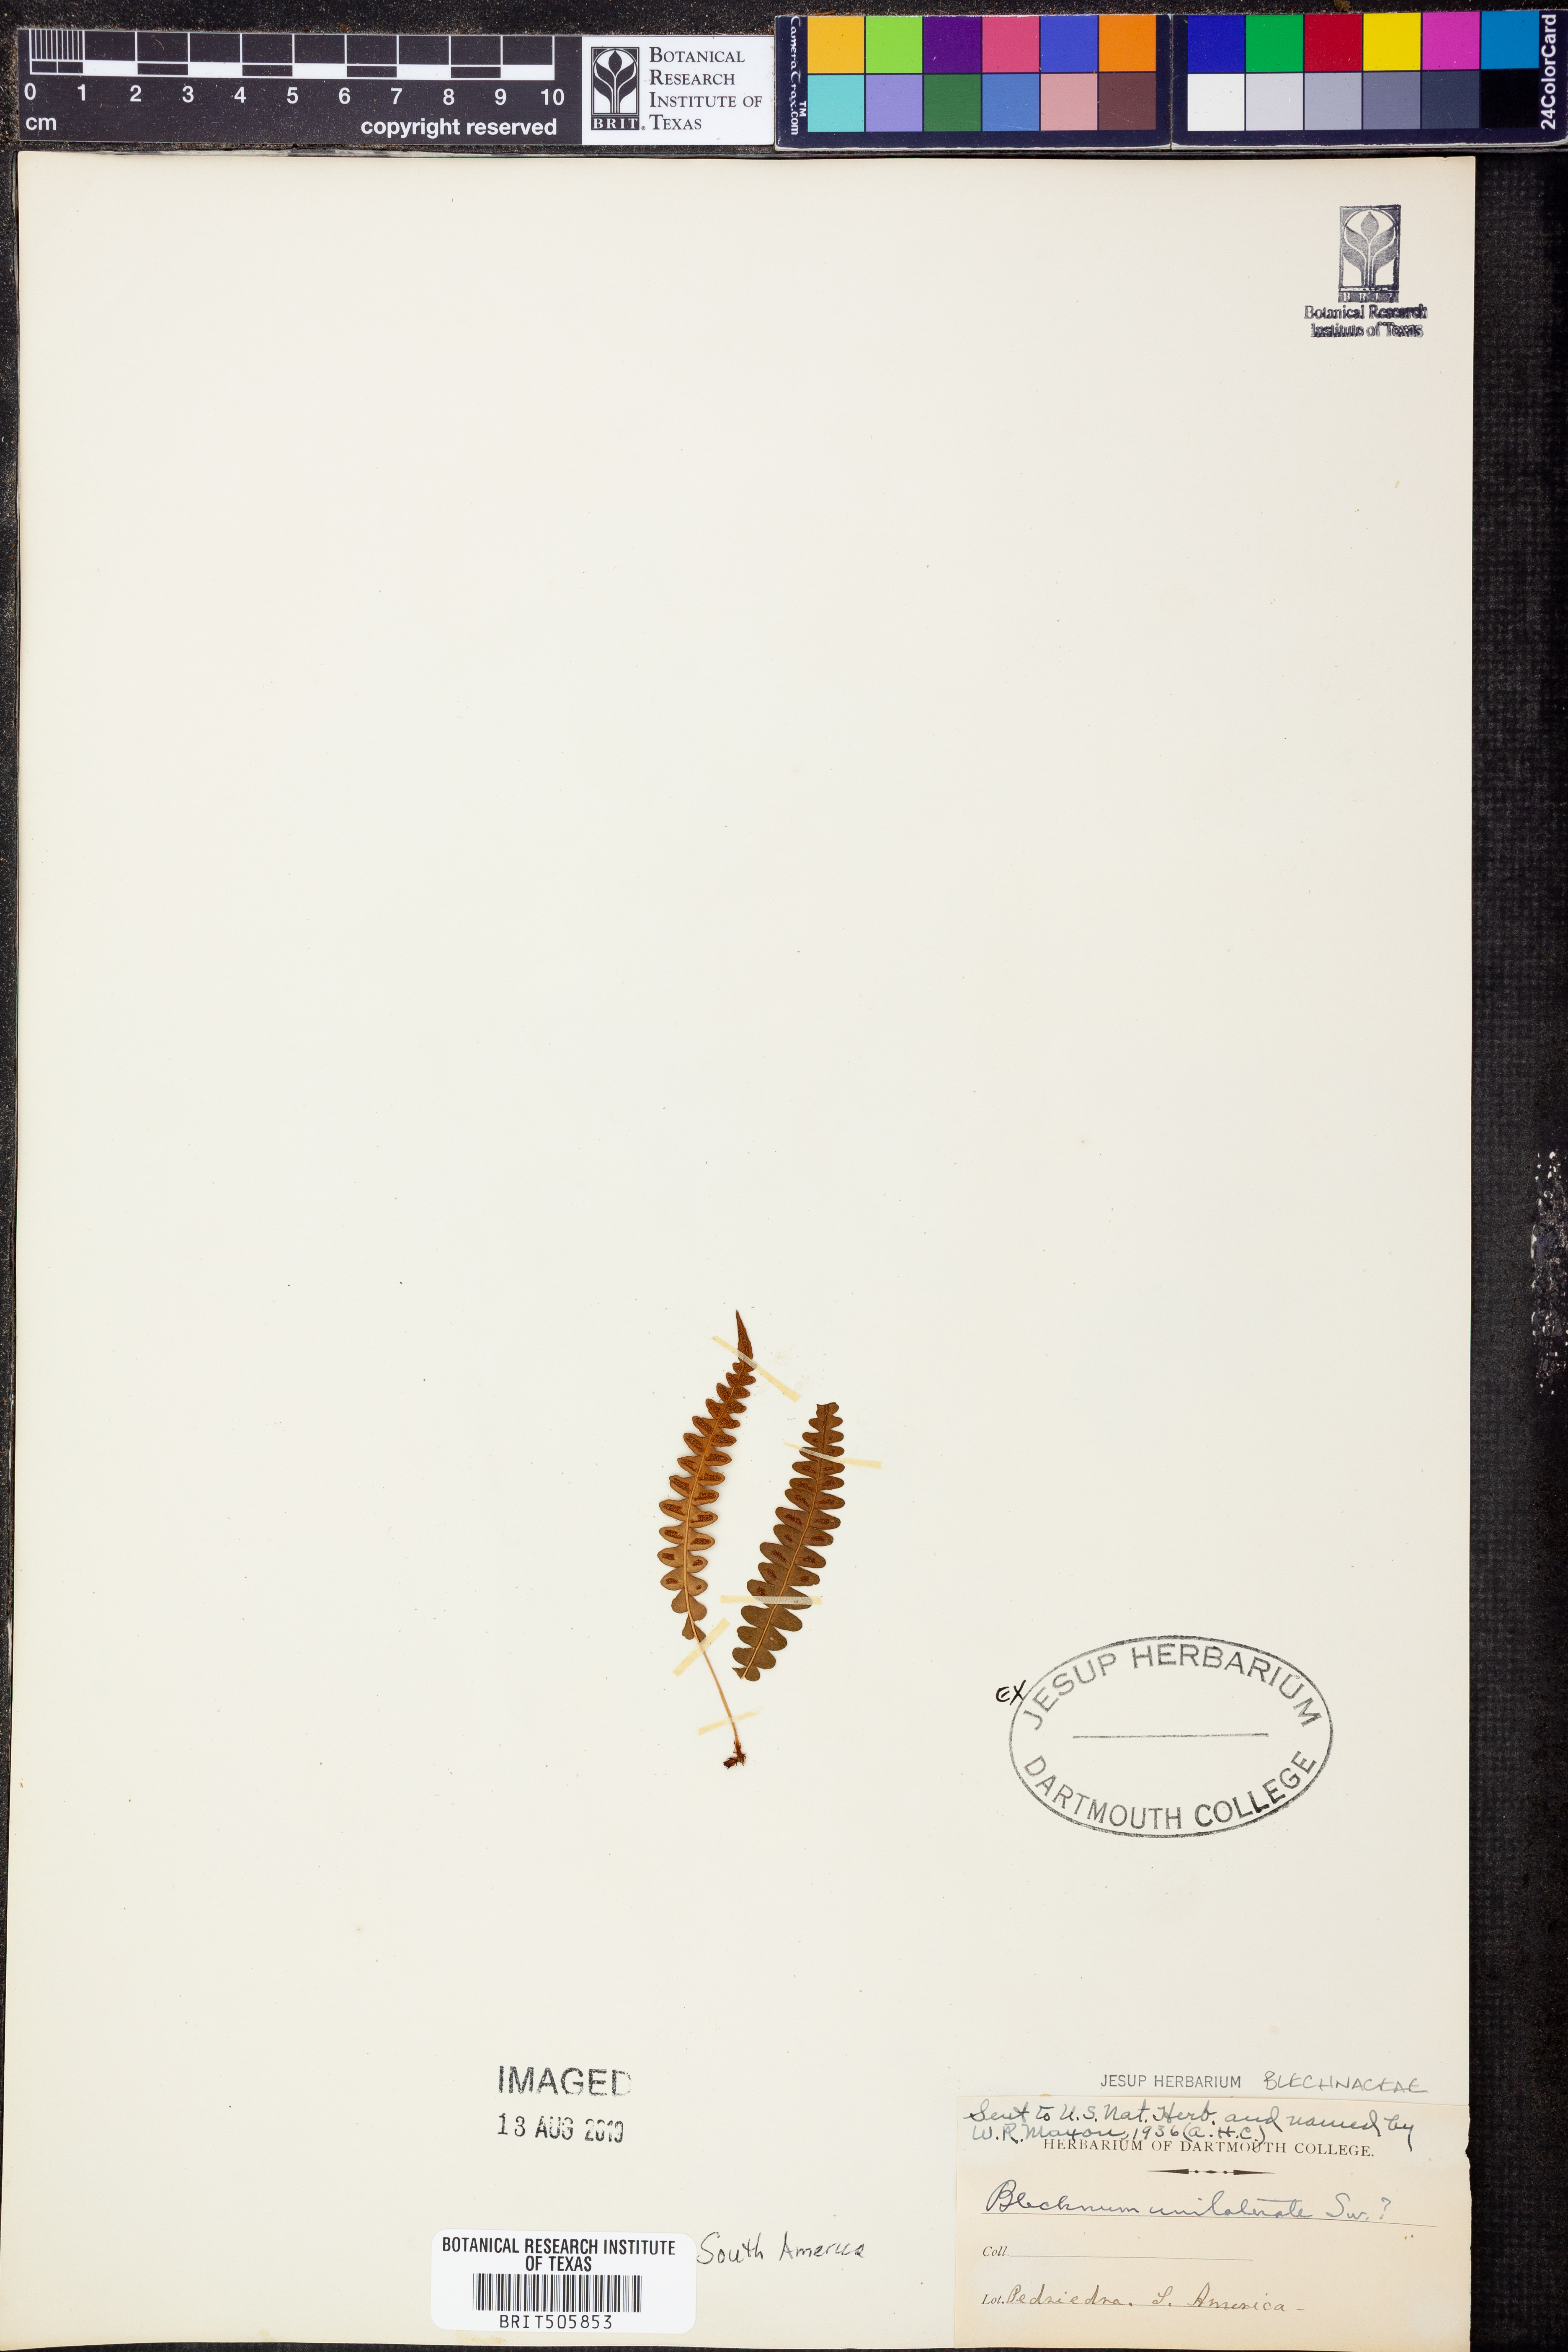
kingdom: Plantae
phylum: Tracheophyta
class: Polypodiopsida
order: Polypodiales
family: Blechnaceae
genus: Blechnum
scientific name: Blechnum polypodioides
